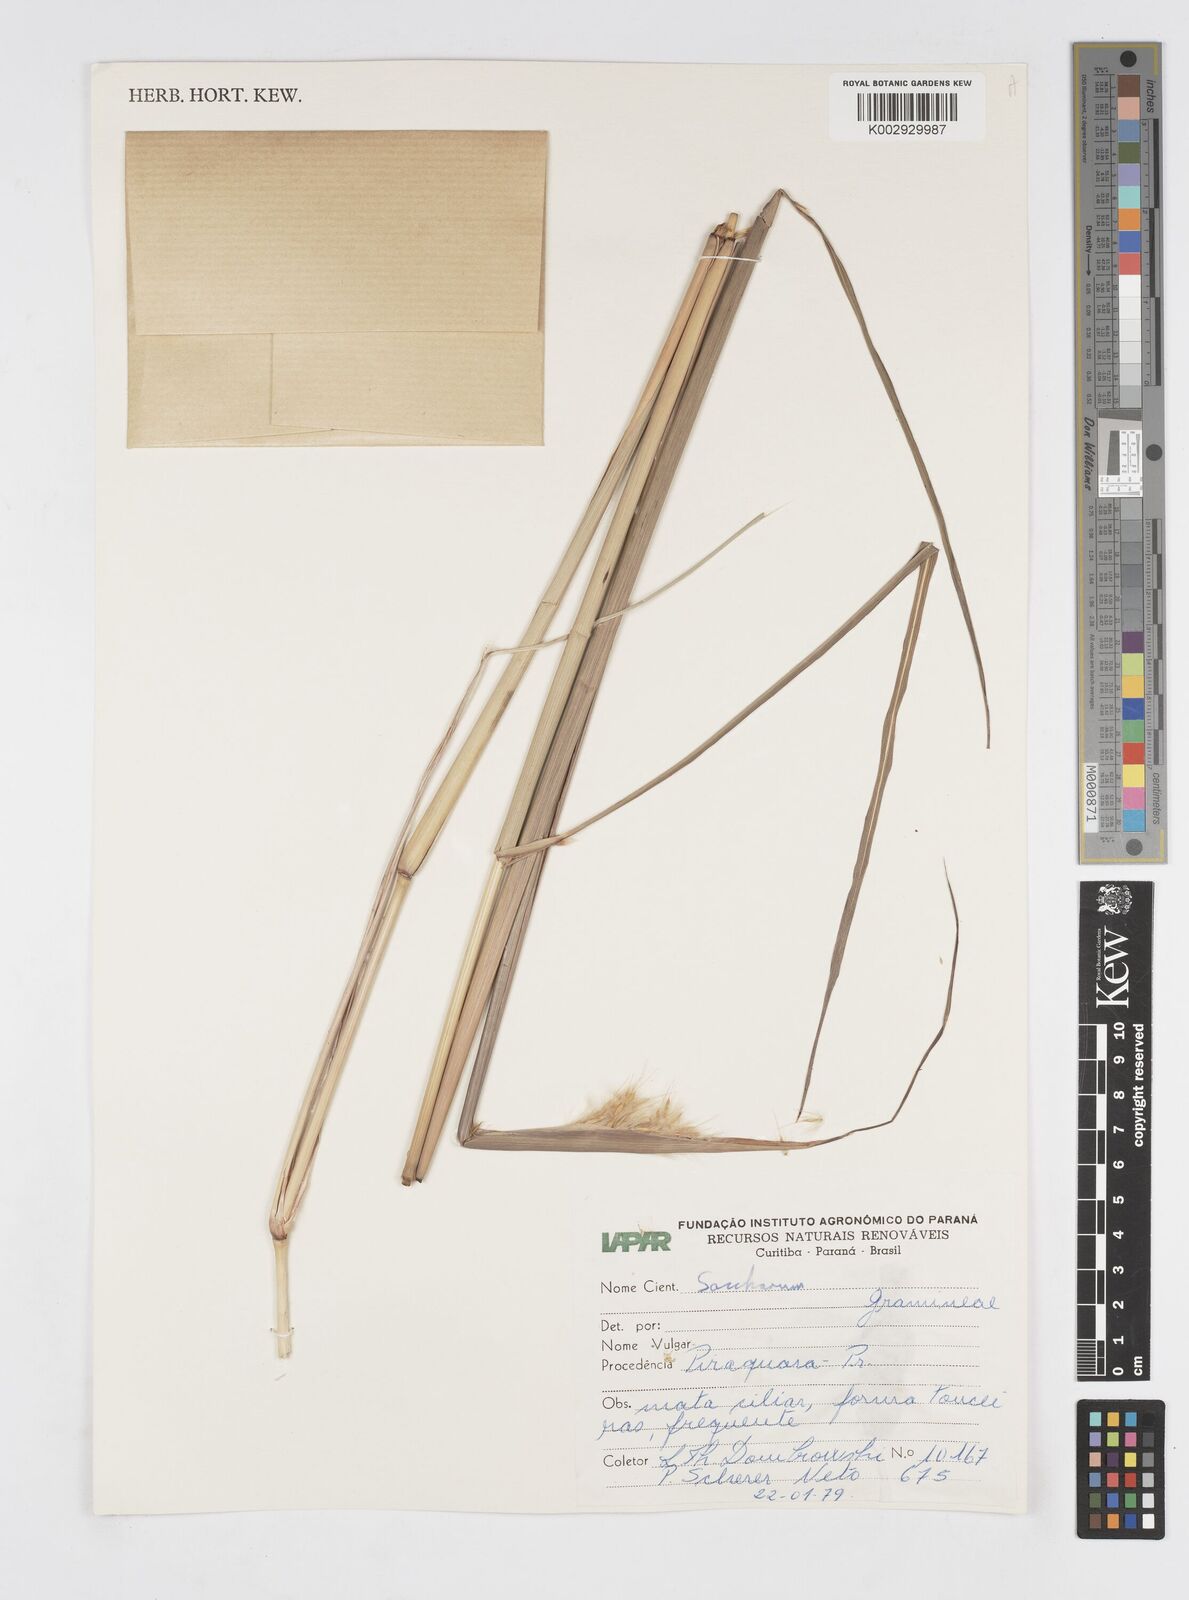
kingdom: Plantae
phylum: Tracheophyta
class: Liliopsida
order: Poales
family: Poaceae
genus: Erianthus
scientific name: Erianthus trinii
